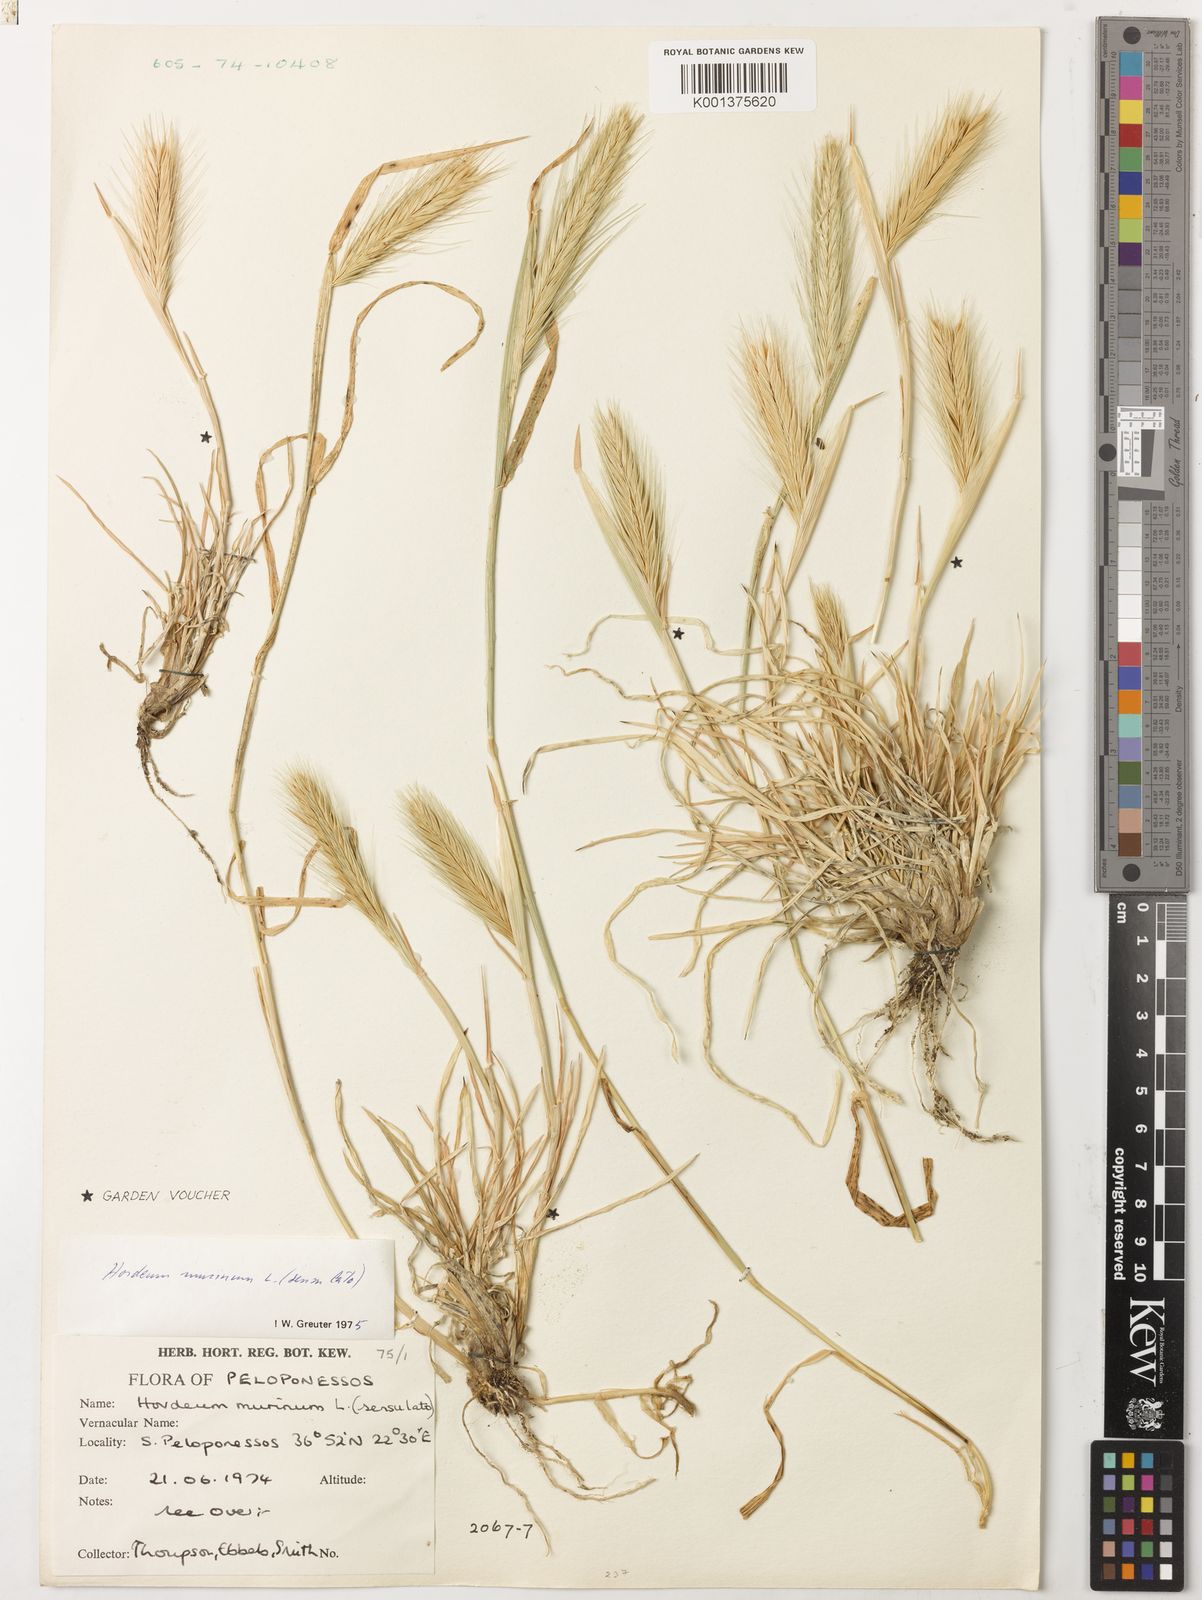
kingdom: Plantae
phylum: Tracheophyta
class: Liliopsida
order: Poales
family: Poaceae
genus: Hordeum
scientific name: Hordeum murinum
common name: Wall barley
